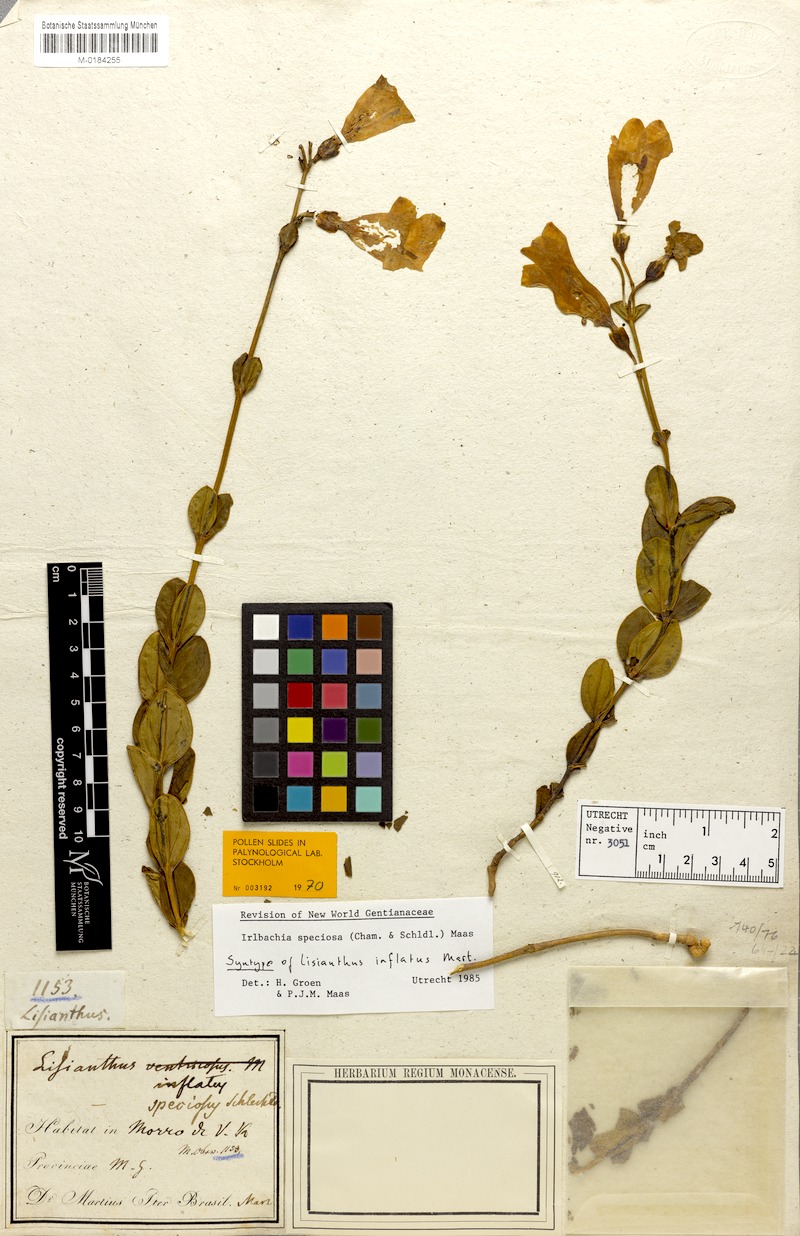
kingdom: Plantae
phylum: Tracheophyta
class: Magnoliopsida
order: Gentianales
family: Gentianaceae
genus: Calolisianthus
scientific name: Calolisianthus speciosus
